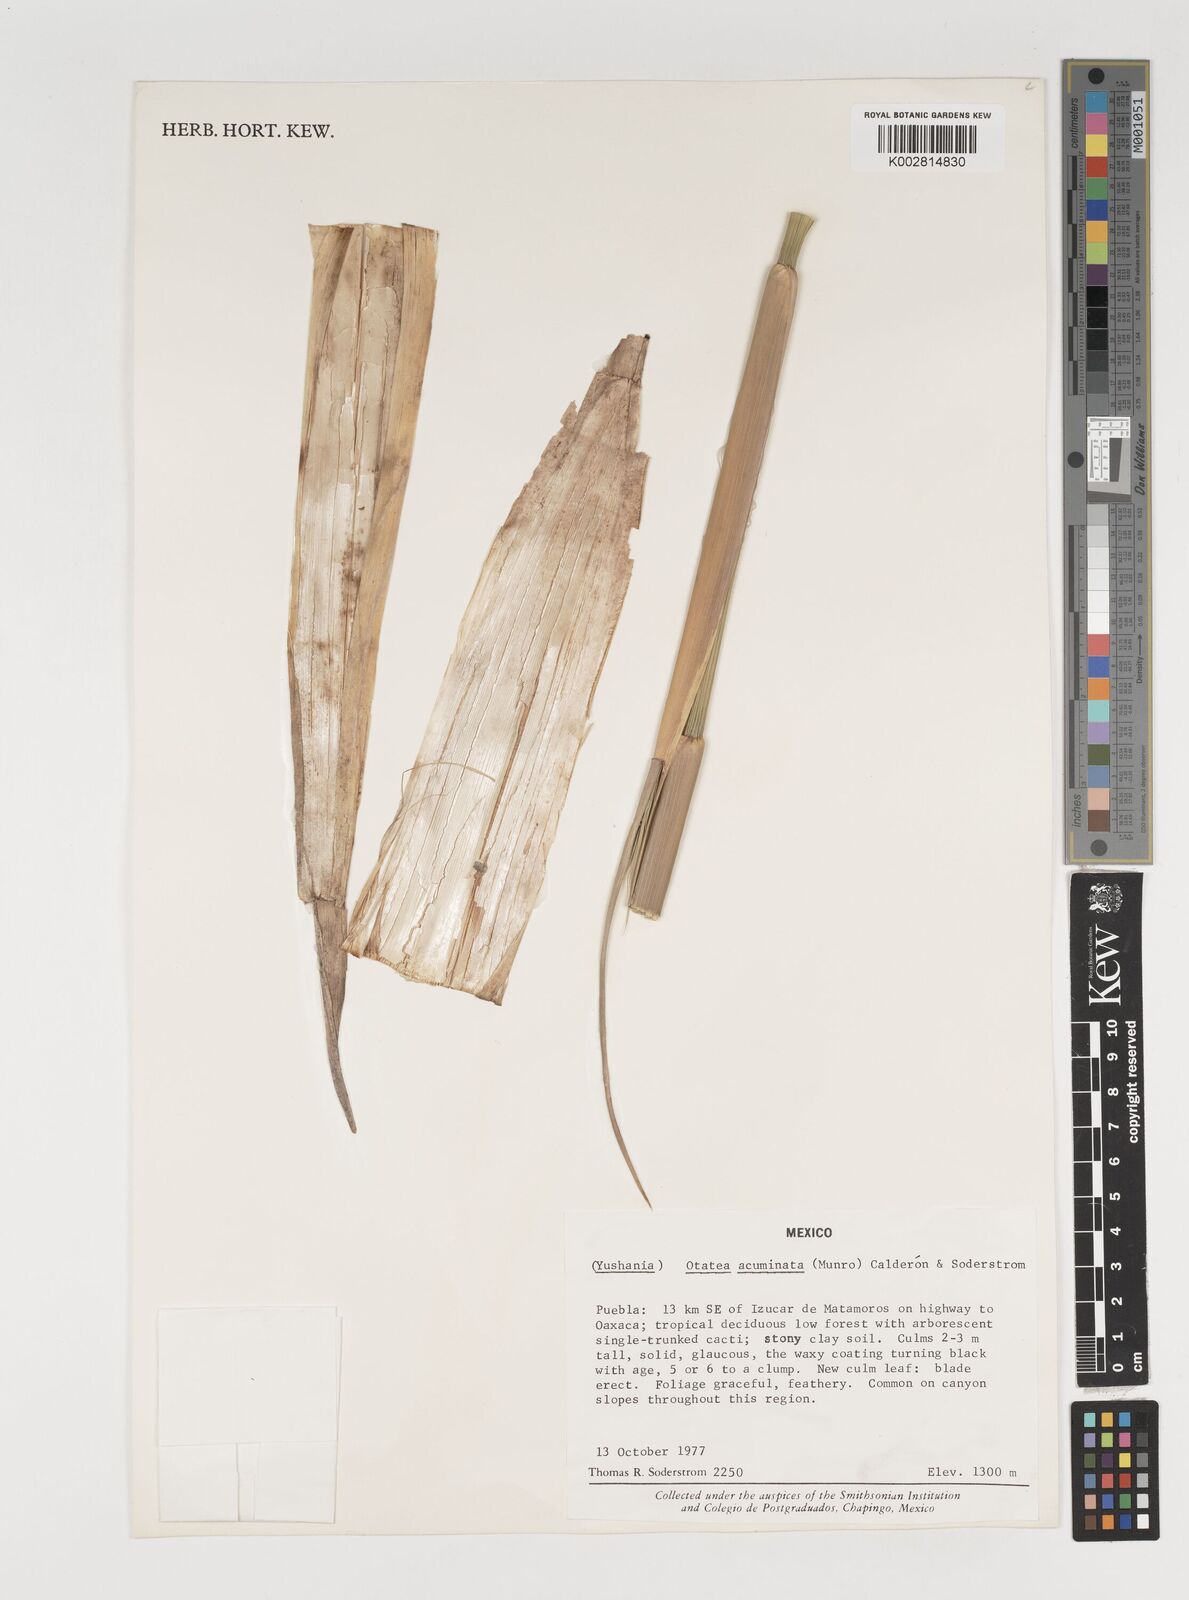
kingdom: Plantae
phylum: Tracheophyta
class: Liliopsida
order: Poales
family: Poaceae
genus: Olmeca
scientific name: Olmeca
